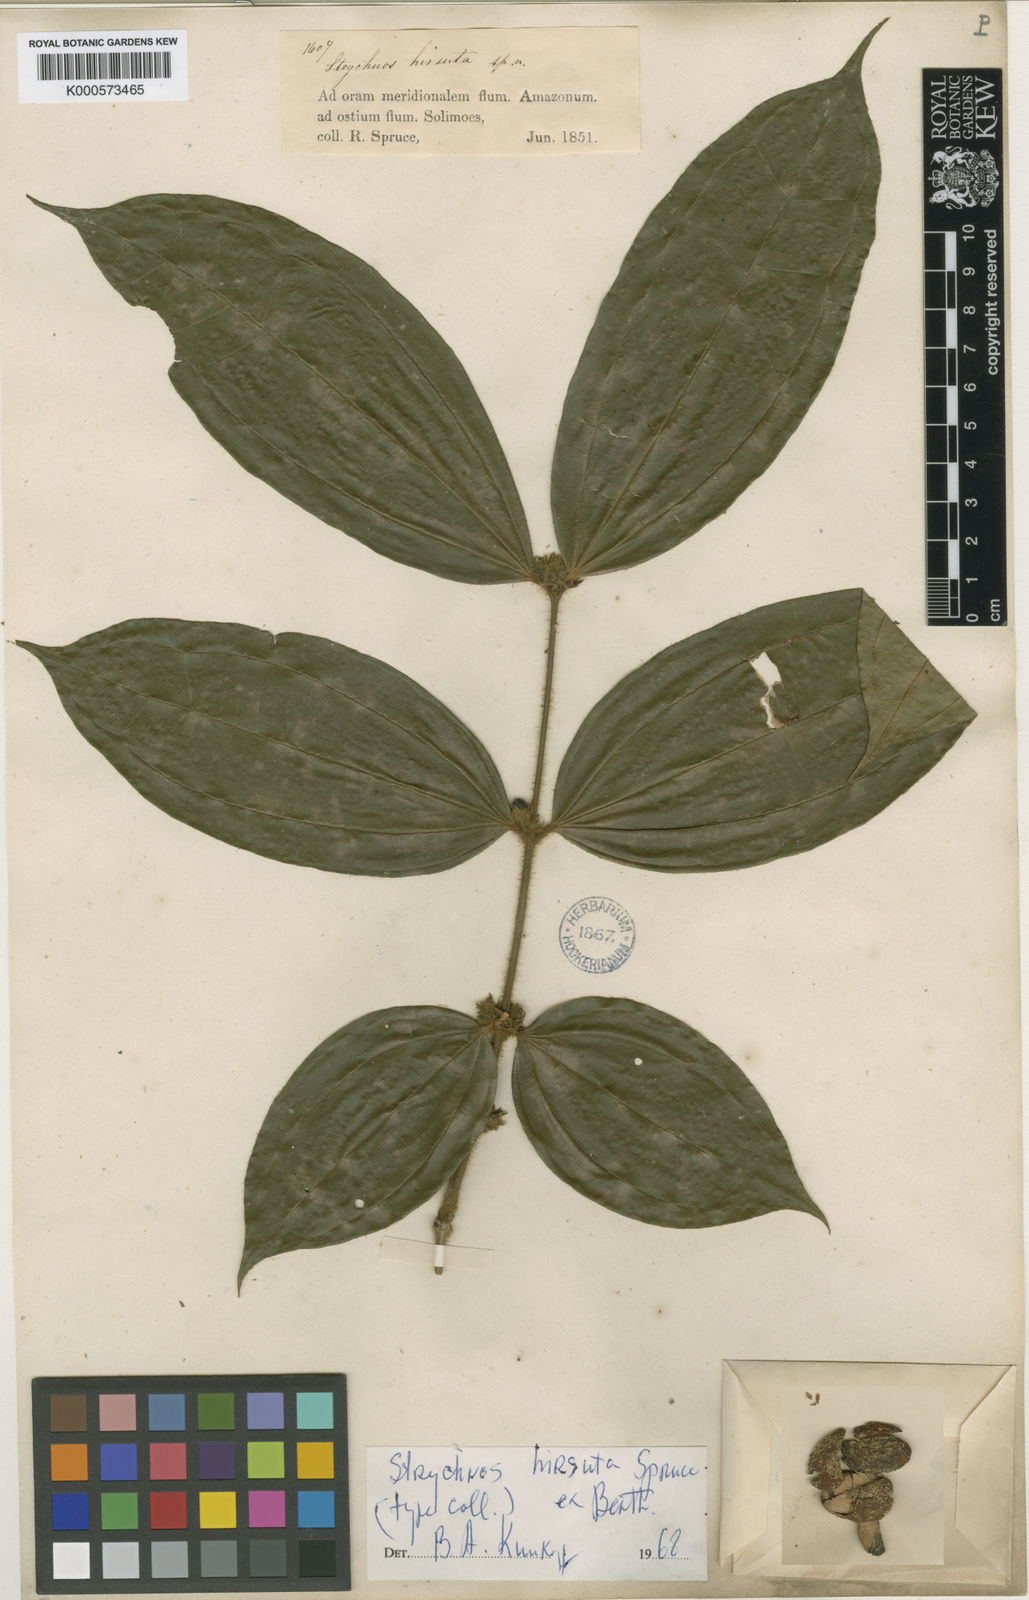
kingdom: Plantae
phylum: Tracheophyta
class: Magnoliopsida
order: Gentianales
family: Loganiaceae
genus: Strychnos
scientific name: Strychnos hirsuta
